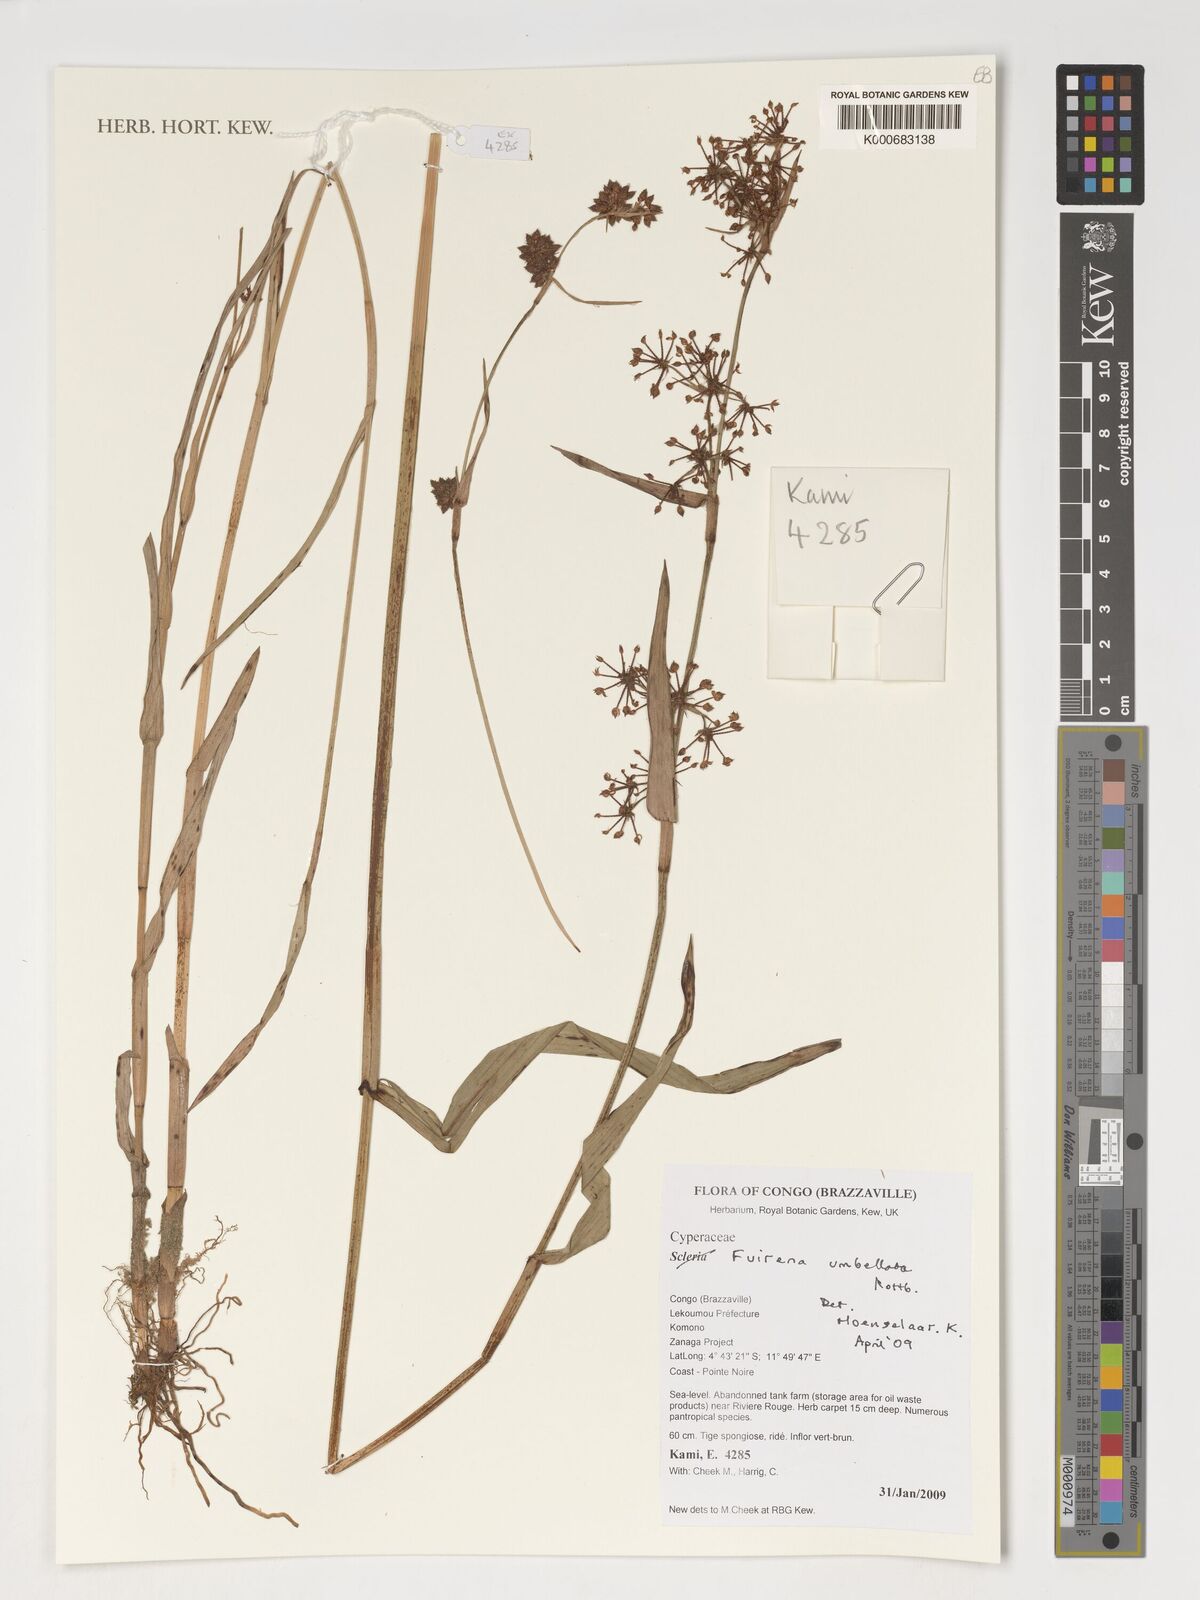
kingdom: Plantae
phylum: Tracheophyta
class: Liliopsida
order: Poales
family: Cyperaceae
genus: Fuirena
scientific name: Fuirena umbellata
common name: Yefen
